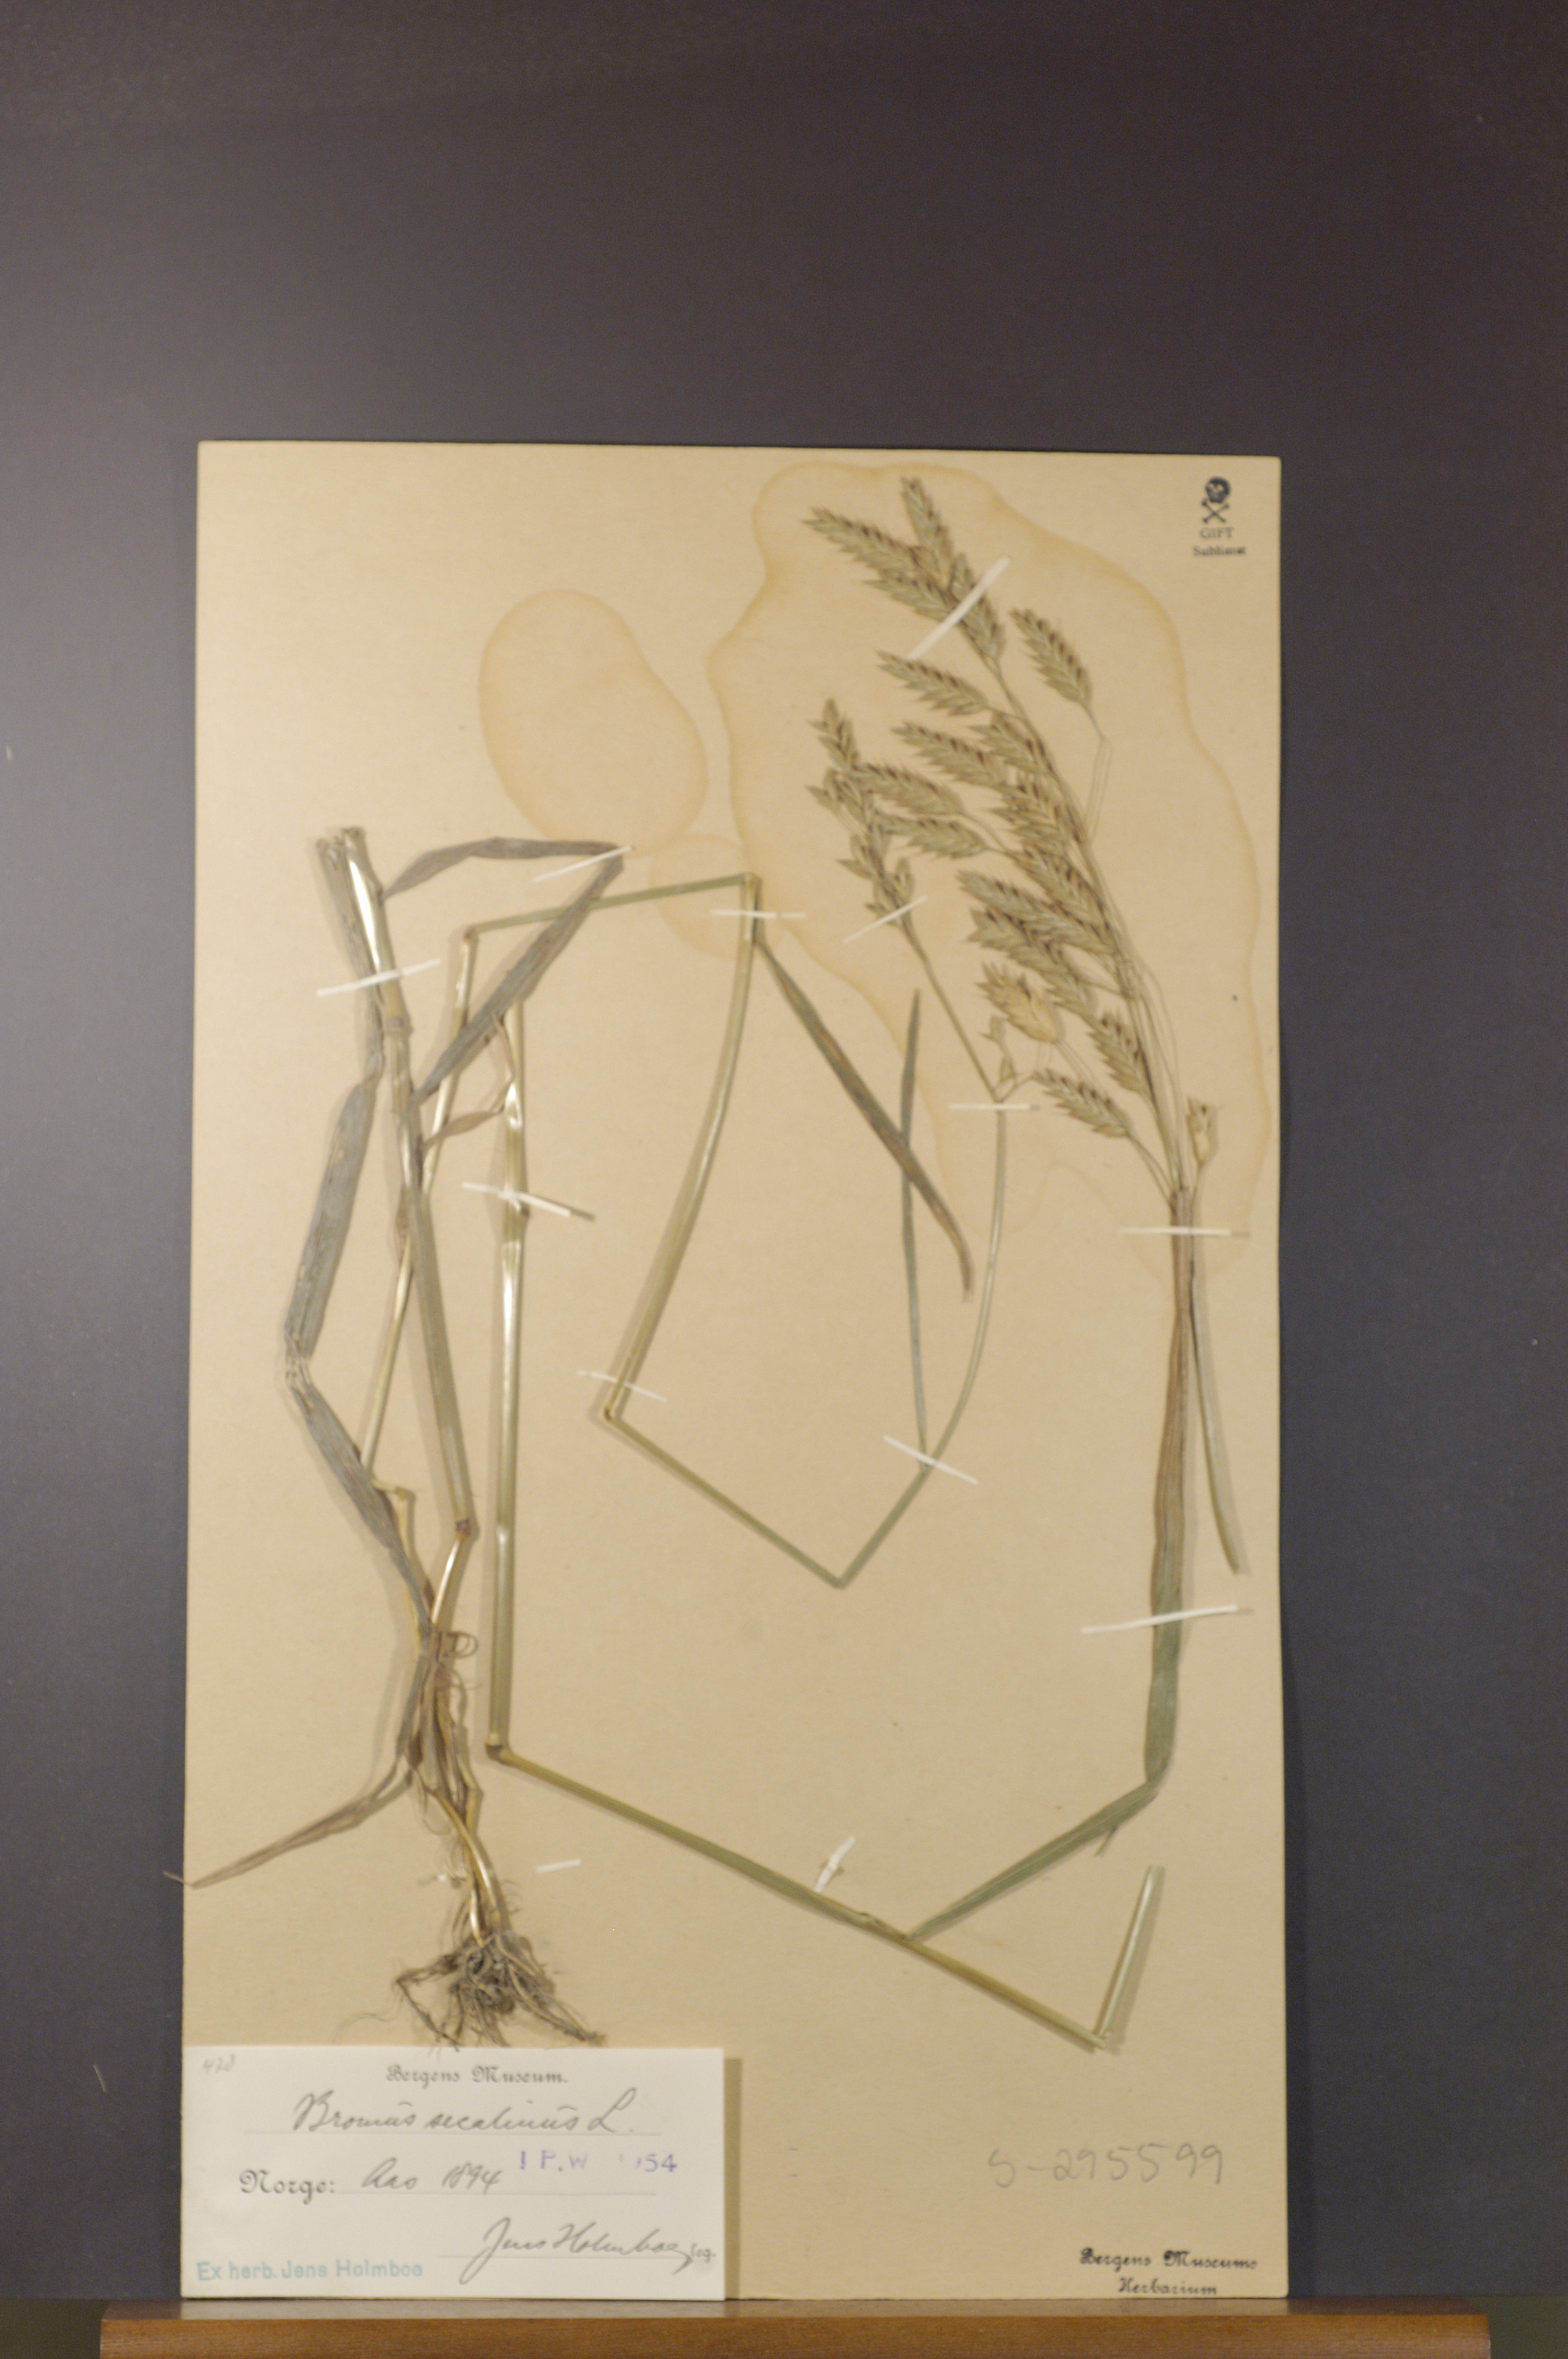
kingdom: Plantae
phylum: Tracheophyta
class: Liliopsida
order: Poales
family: Poaceae
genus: Bromus
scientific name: Bromus secalinus
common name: Rye brome
